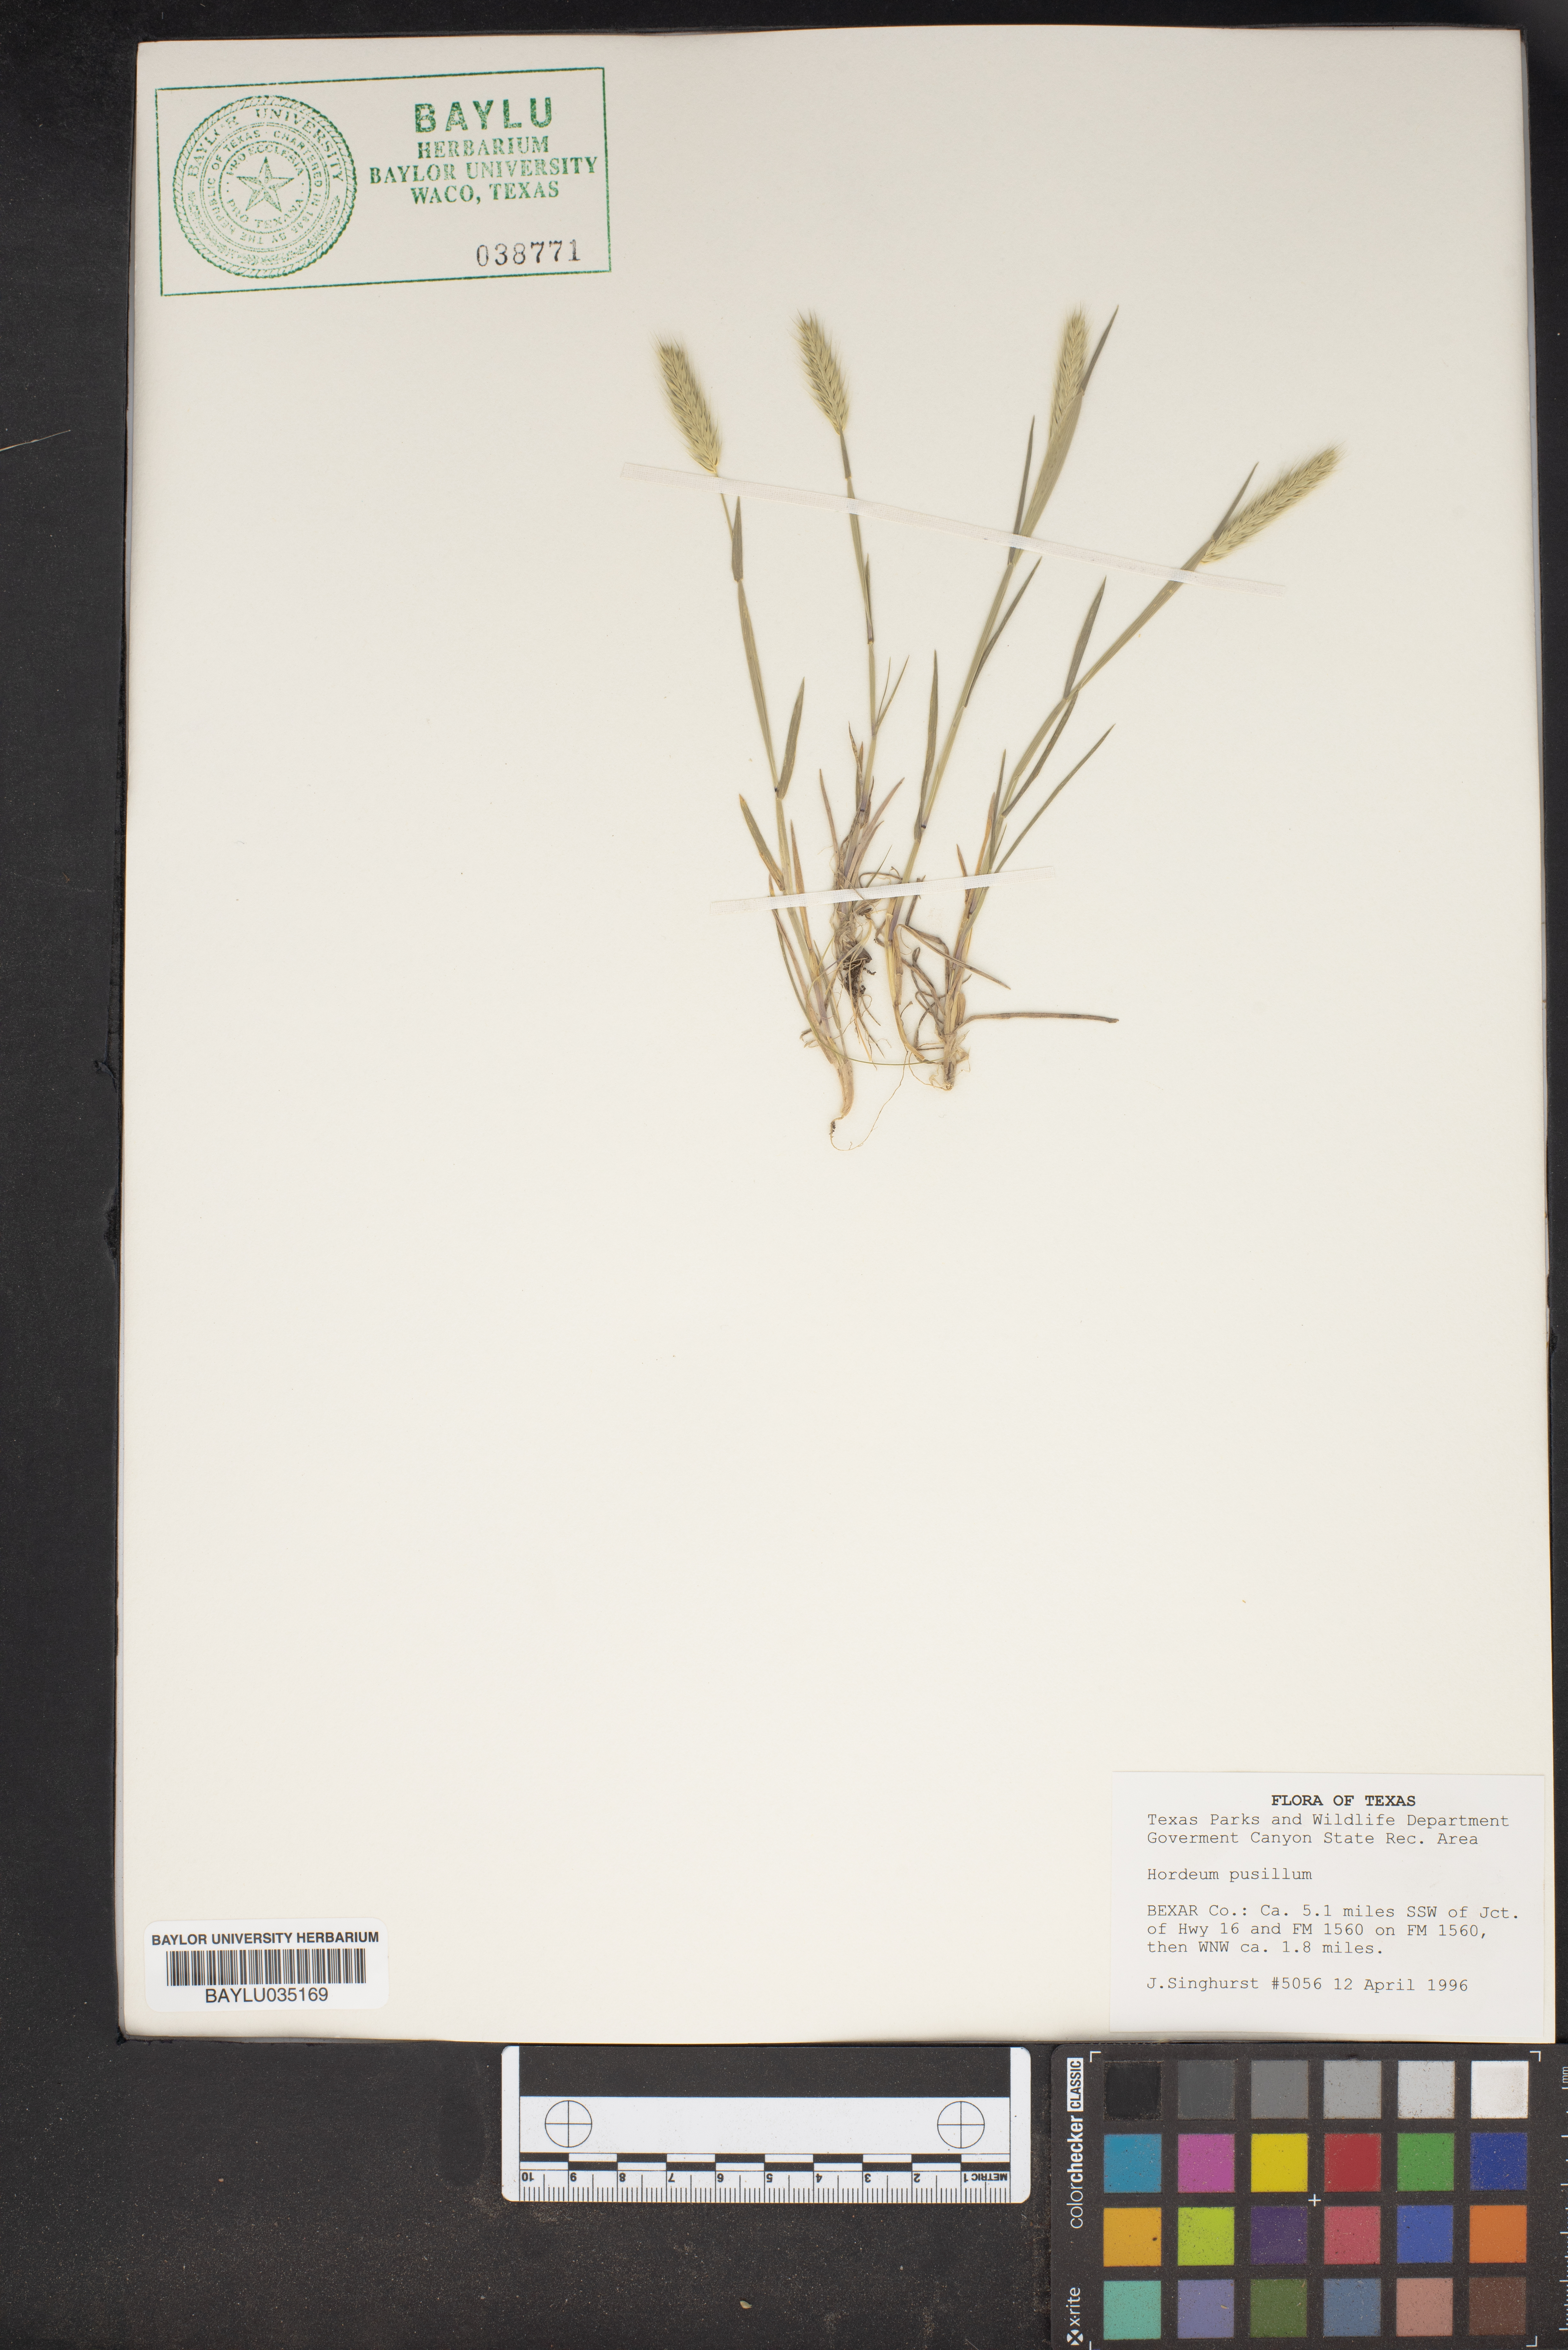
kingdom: Plantae
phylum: Tracheophyta
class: Liliopsida
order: Poales
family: Poaceae
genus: Hordeum
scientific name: Hordeum pusillum
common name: Little barley
